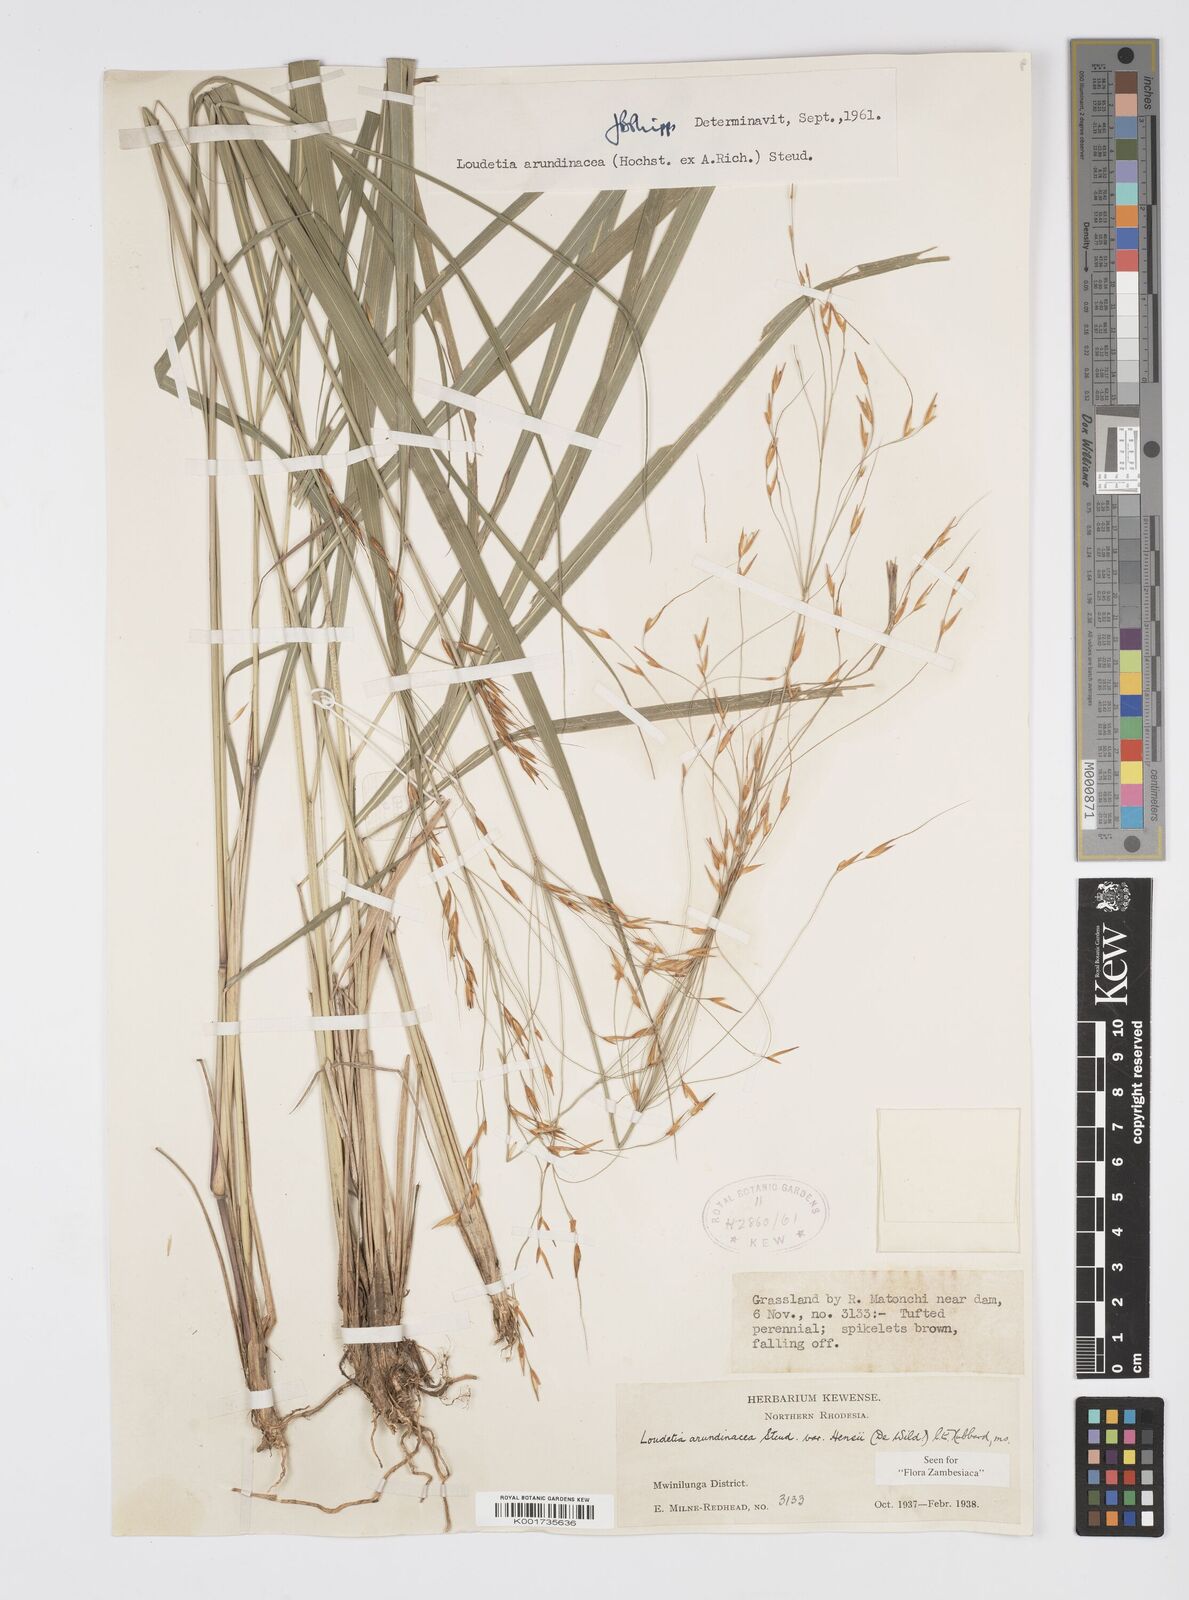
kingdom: Plantae
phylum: Tracheophyta
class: Liliopsida
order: Poales
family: Poaceae
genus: Loudetia
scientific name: Loudetia arundinacea
